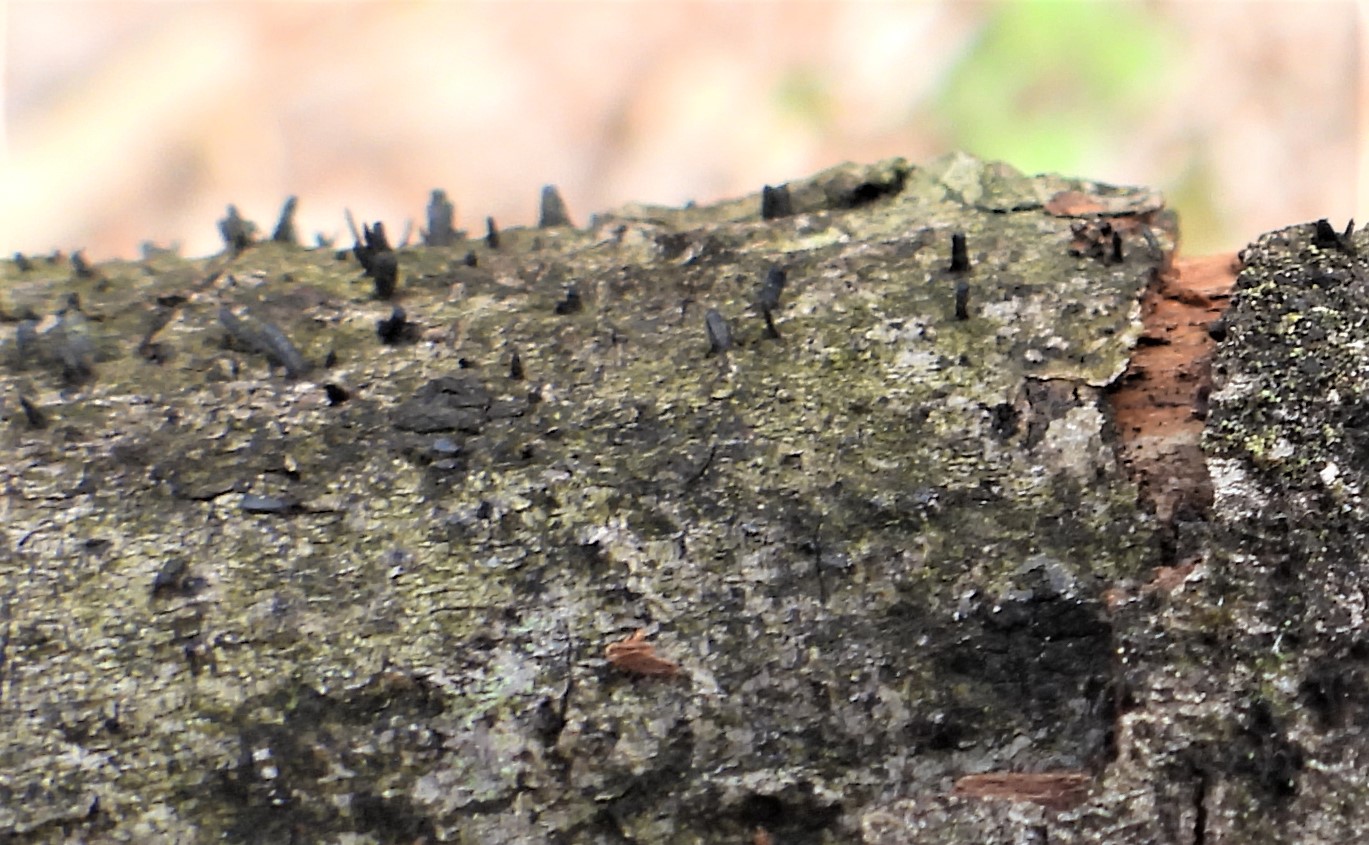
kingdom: Fungi
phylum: Ascomycota
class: Eurotiomycetes
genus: Glyphium
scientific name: Glyphium elatum
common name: kuløkse
